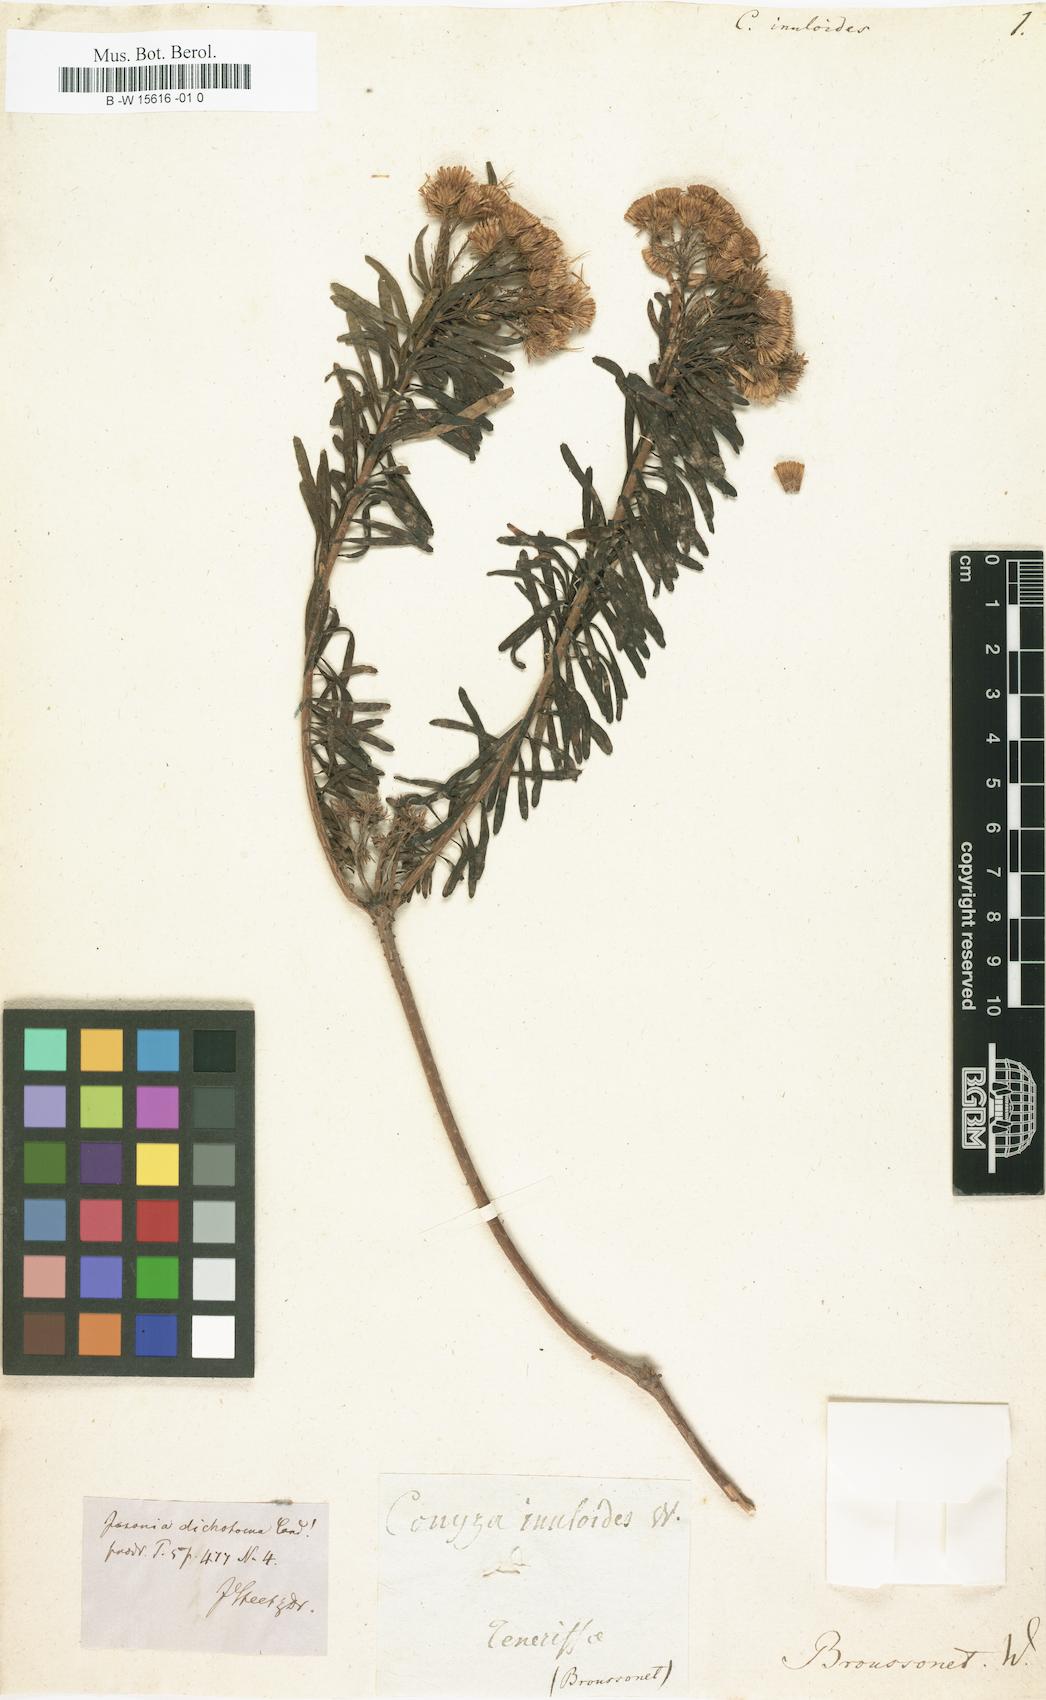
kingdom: Plantae
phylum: Tracheophyta
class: Magnoliopsida
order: Asterales
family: Asteraceae
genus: Conyza
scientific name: Conyza inuloides
